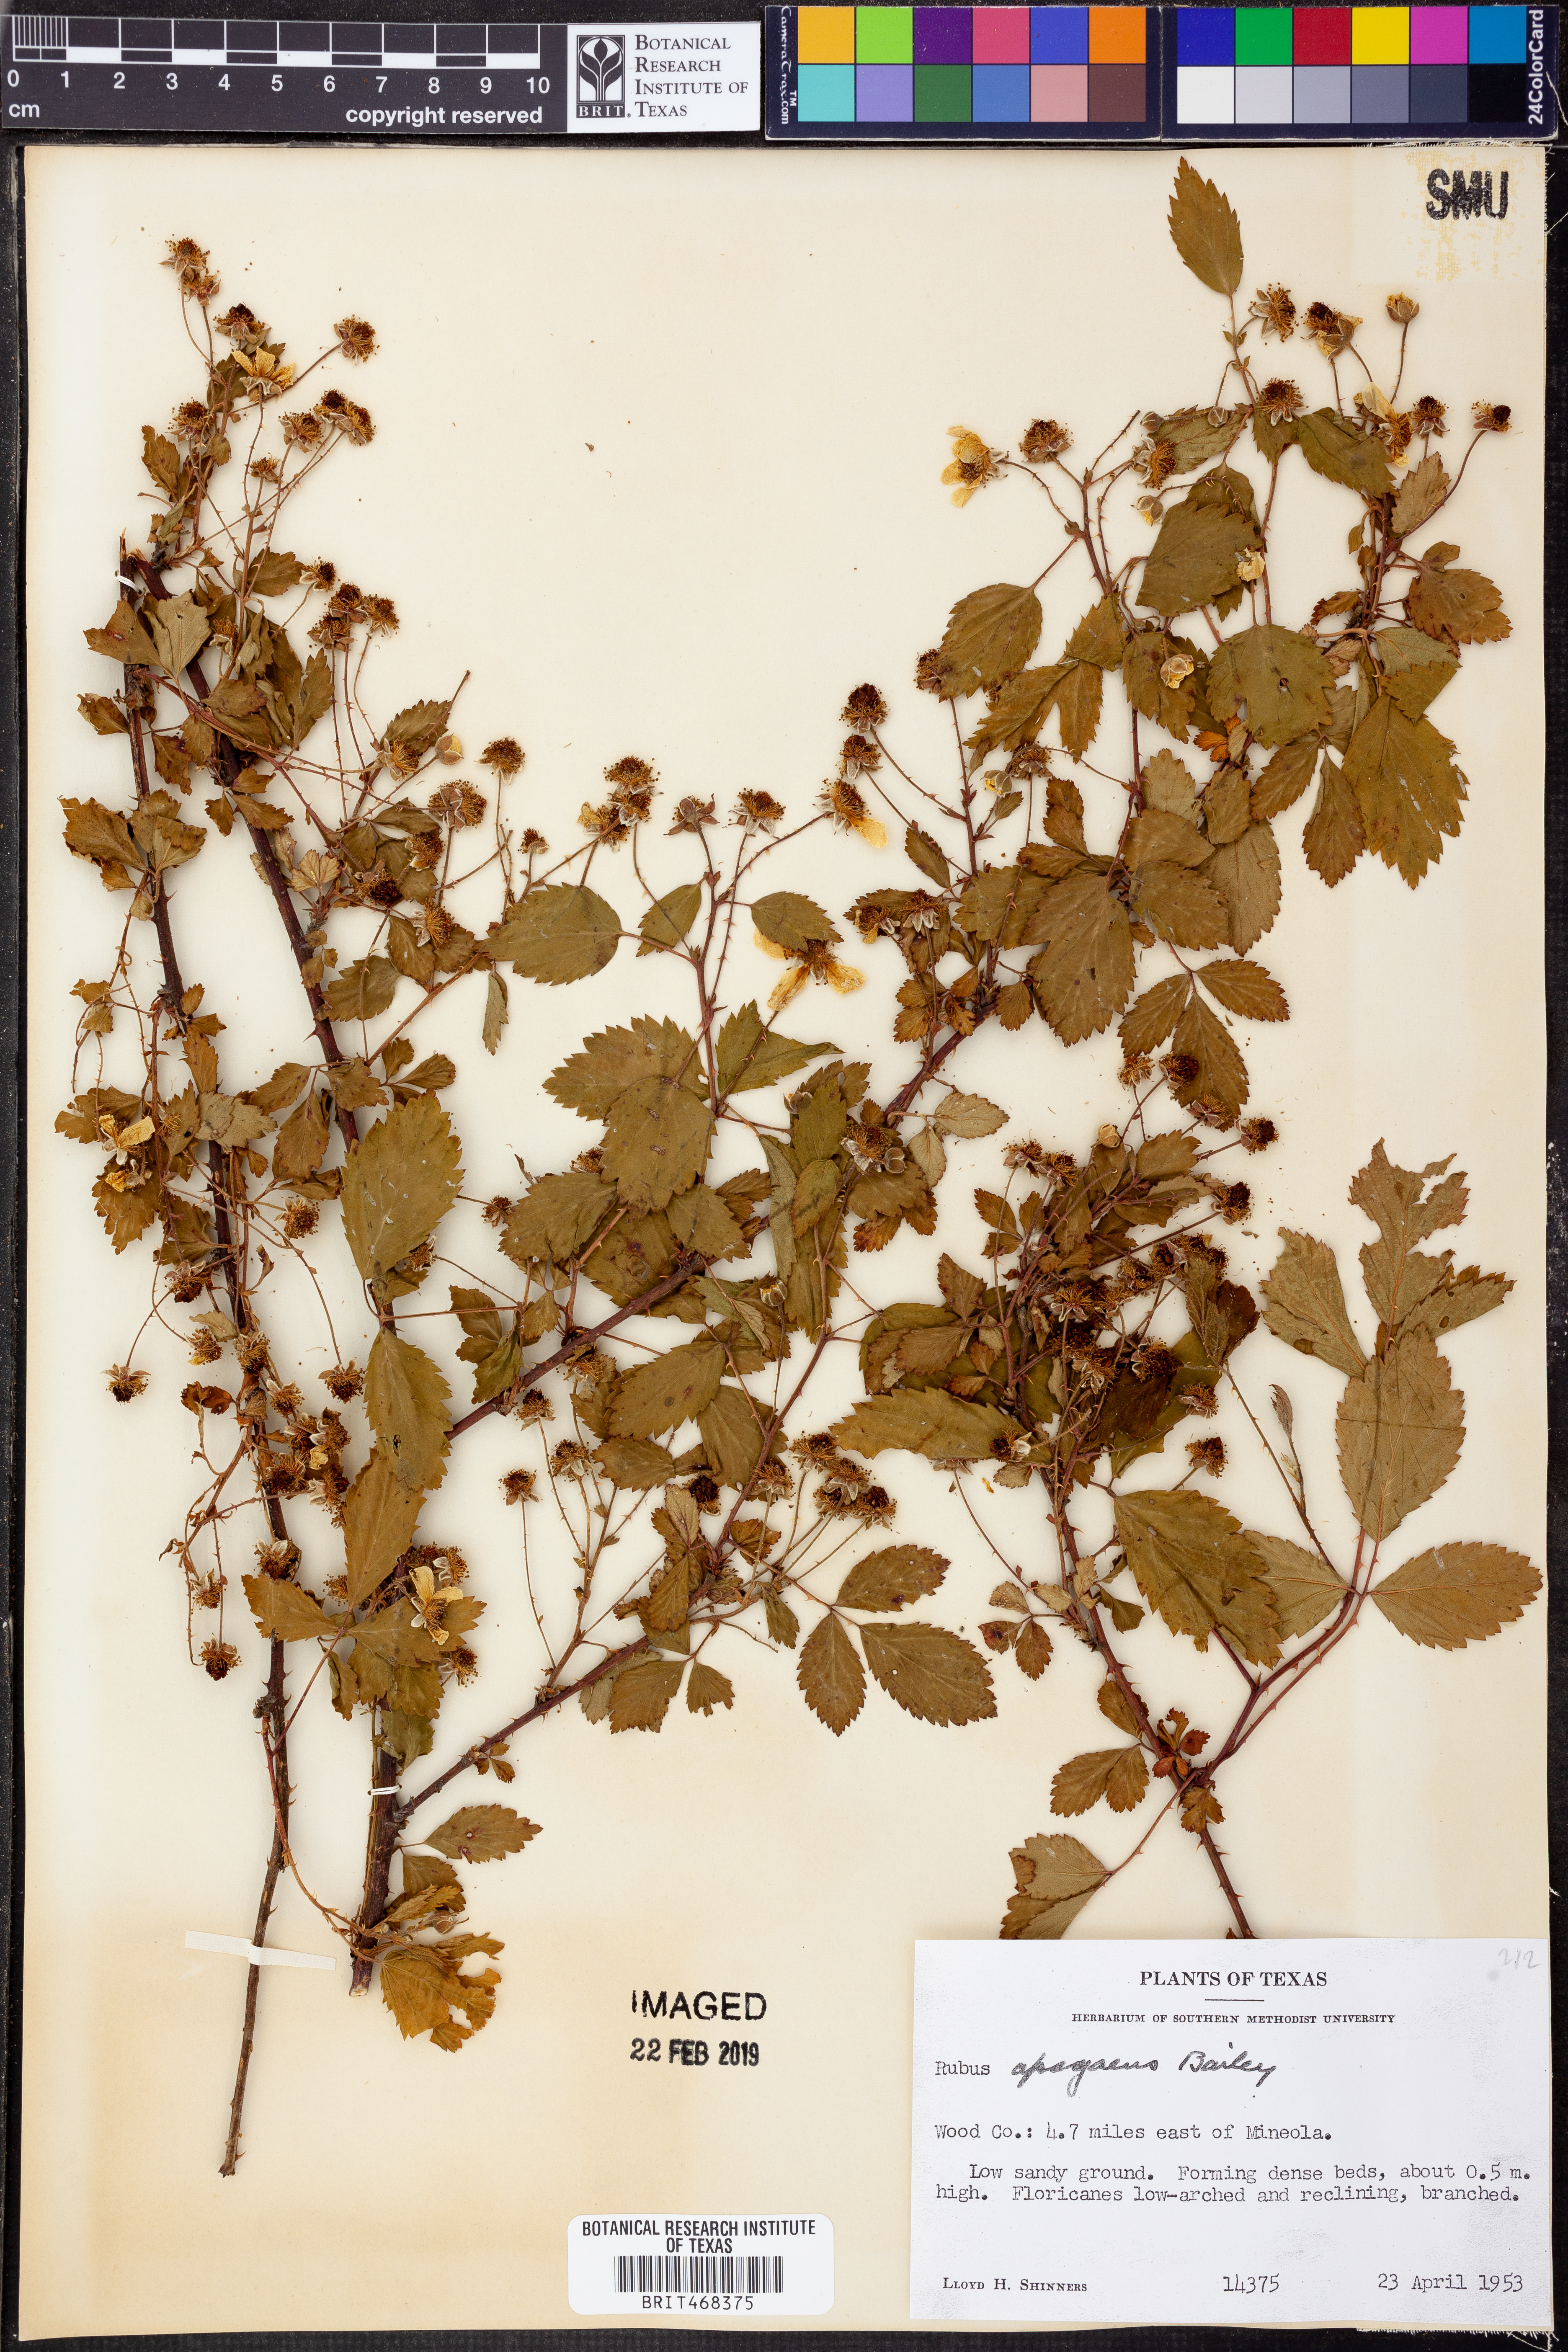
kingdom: Plantae
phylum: Tracheophyta
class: Magnoliopsida
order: Rosales
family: Rosaceae
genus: Rubus
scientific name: Rubus apogaeus
